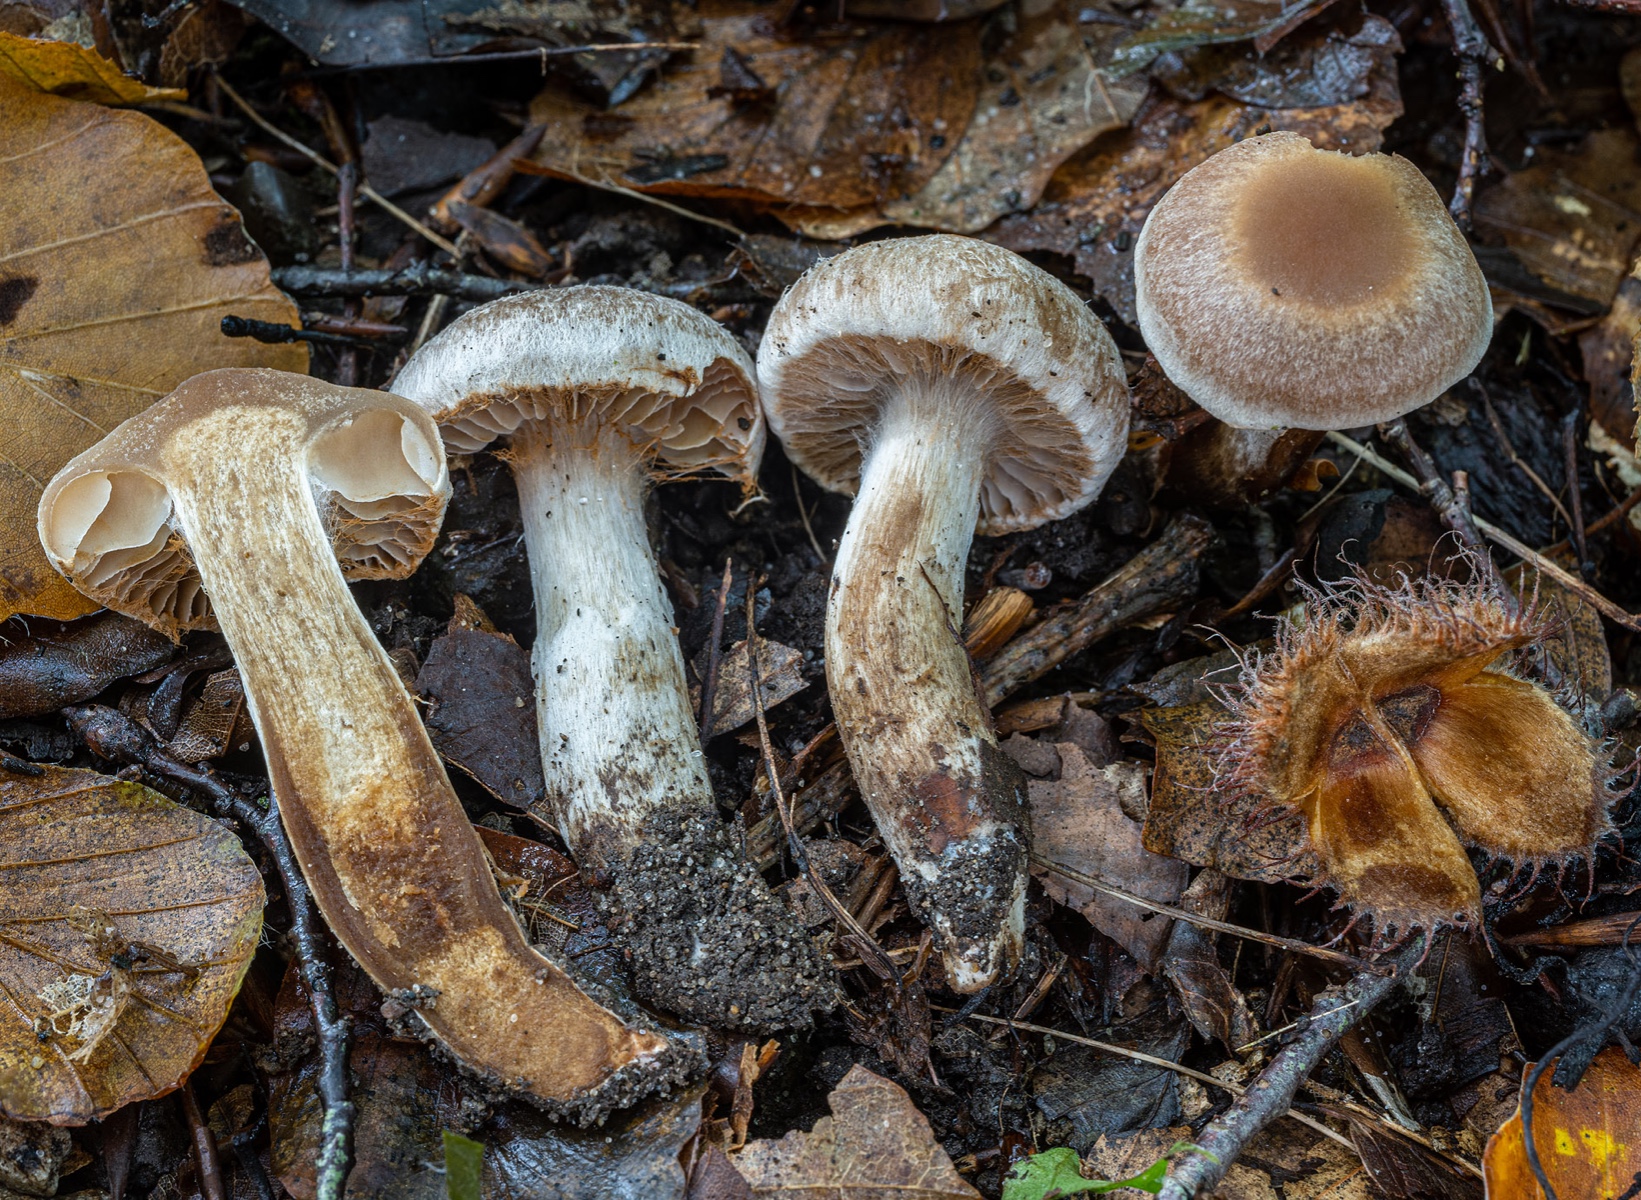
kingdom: Fungi
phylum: Basidiomycota
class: Agaricomycetes
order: Agaricales
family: Cortinariaceae
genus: Cortinarius
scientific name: Cortinarius rubricosus
